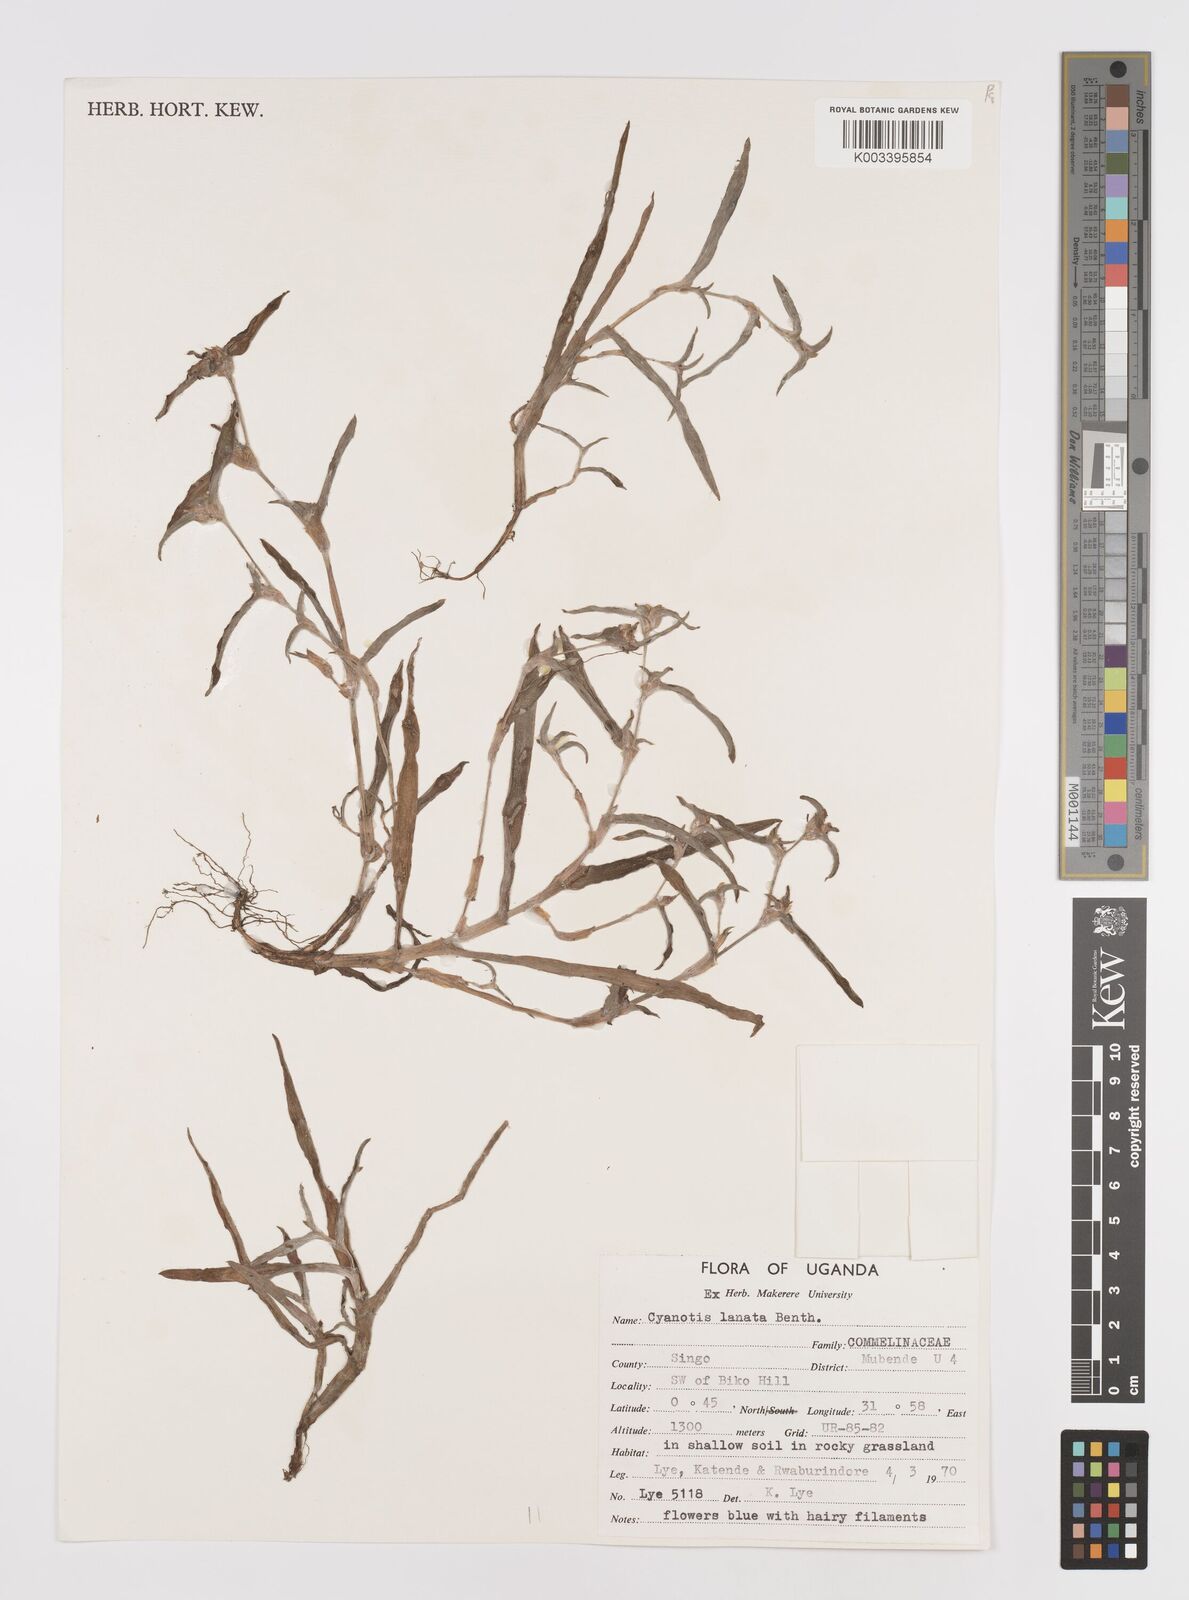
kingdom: Plantae
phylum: Tracheophyta
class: Liliopsida
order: Commelinales
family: Commelinaceae
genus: Cyanotis
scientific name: Cyanotis lanata
